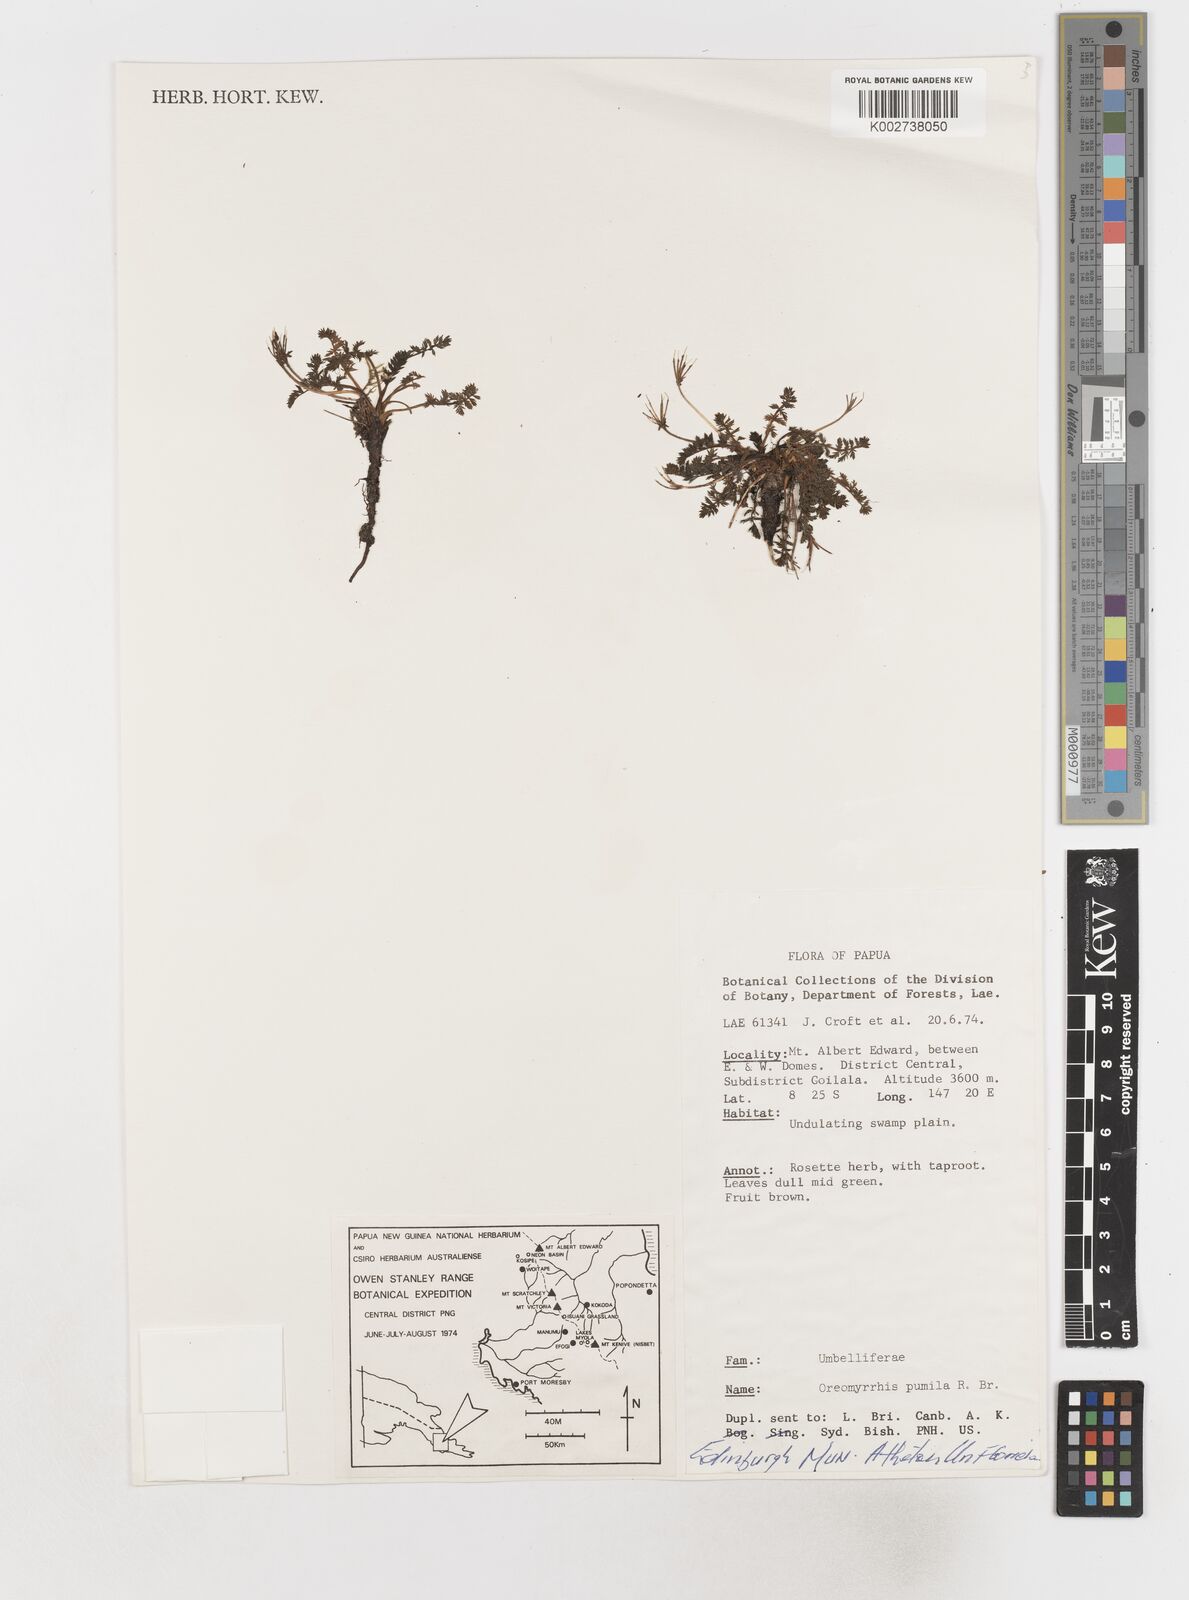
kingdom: Plantae
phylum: Tracheophyta
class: Magnoliopsida
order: Apiales
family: Apiaceae
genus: Chaerophyllum
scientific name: Chaerophyllum pumilum
